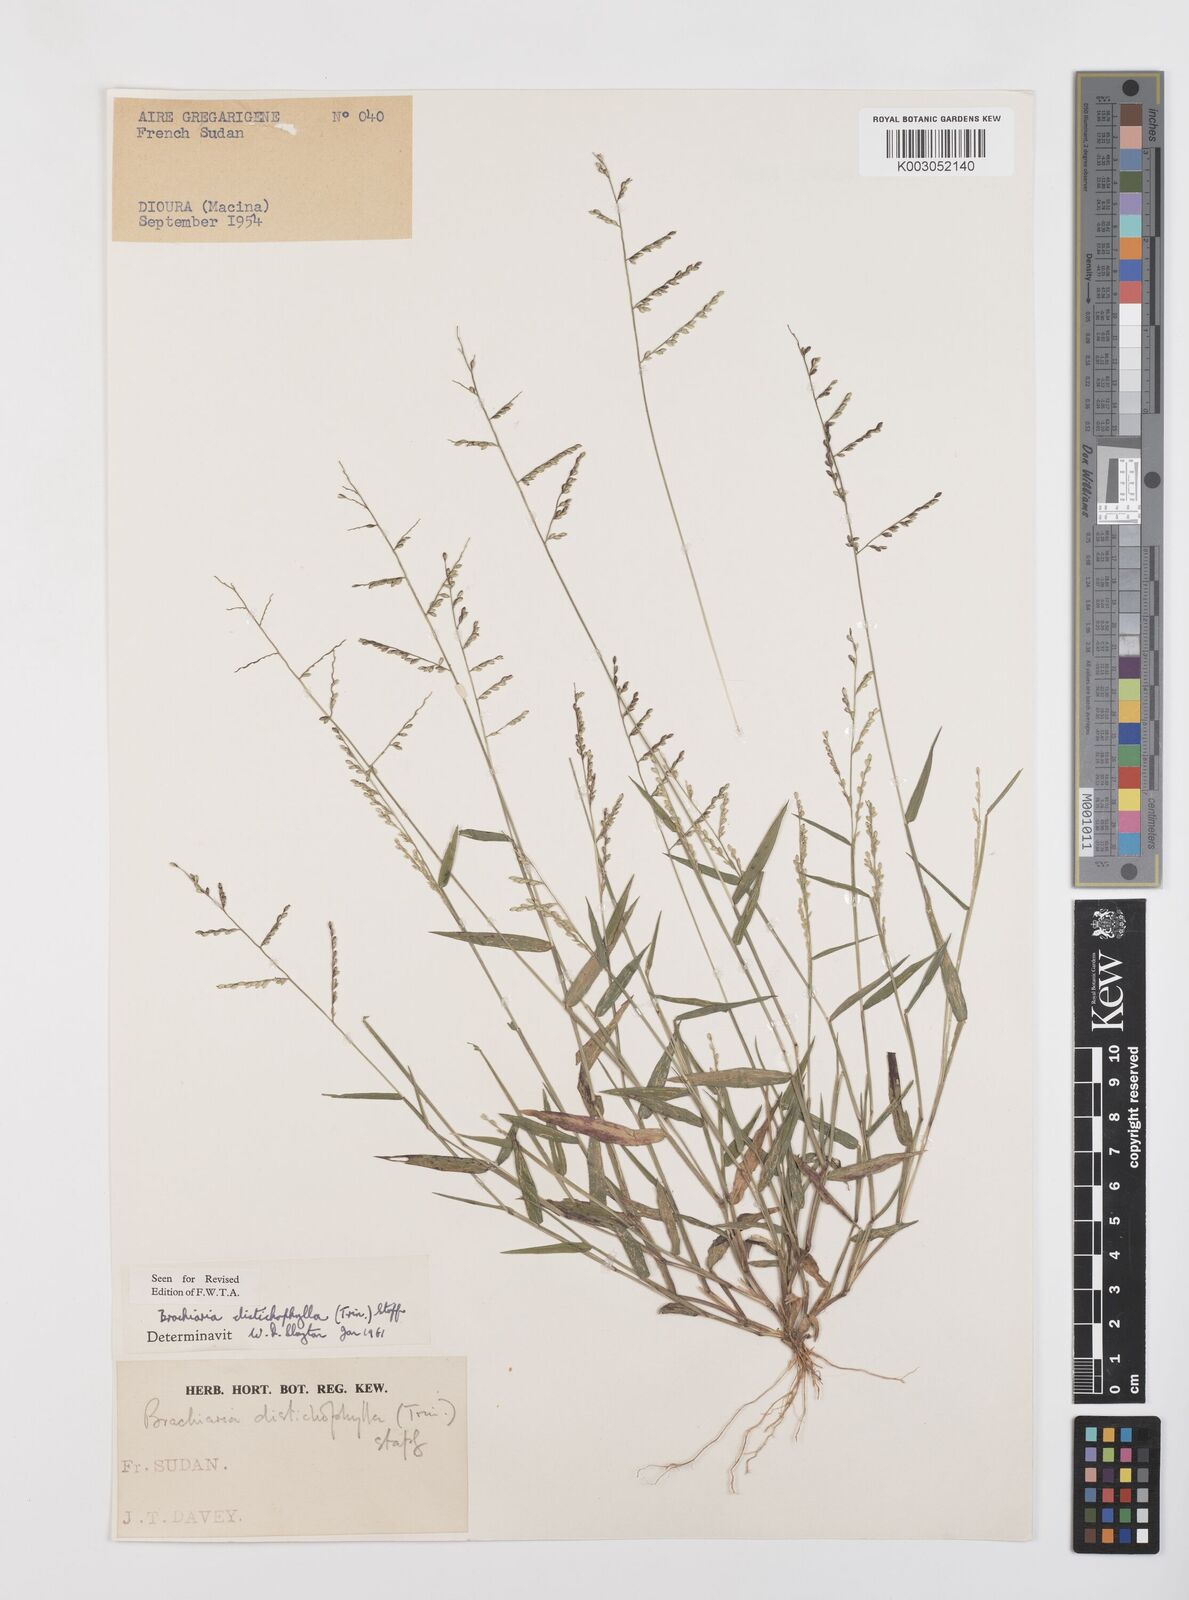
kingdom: Plantae
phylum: Tracheophyta
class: Liliopsida
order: Poales
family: Poaceae
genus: Urochloa
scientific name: Urochloa villosa
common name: Hairy signalgrass
